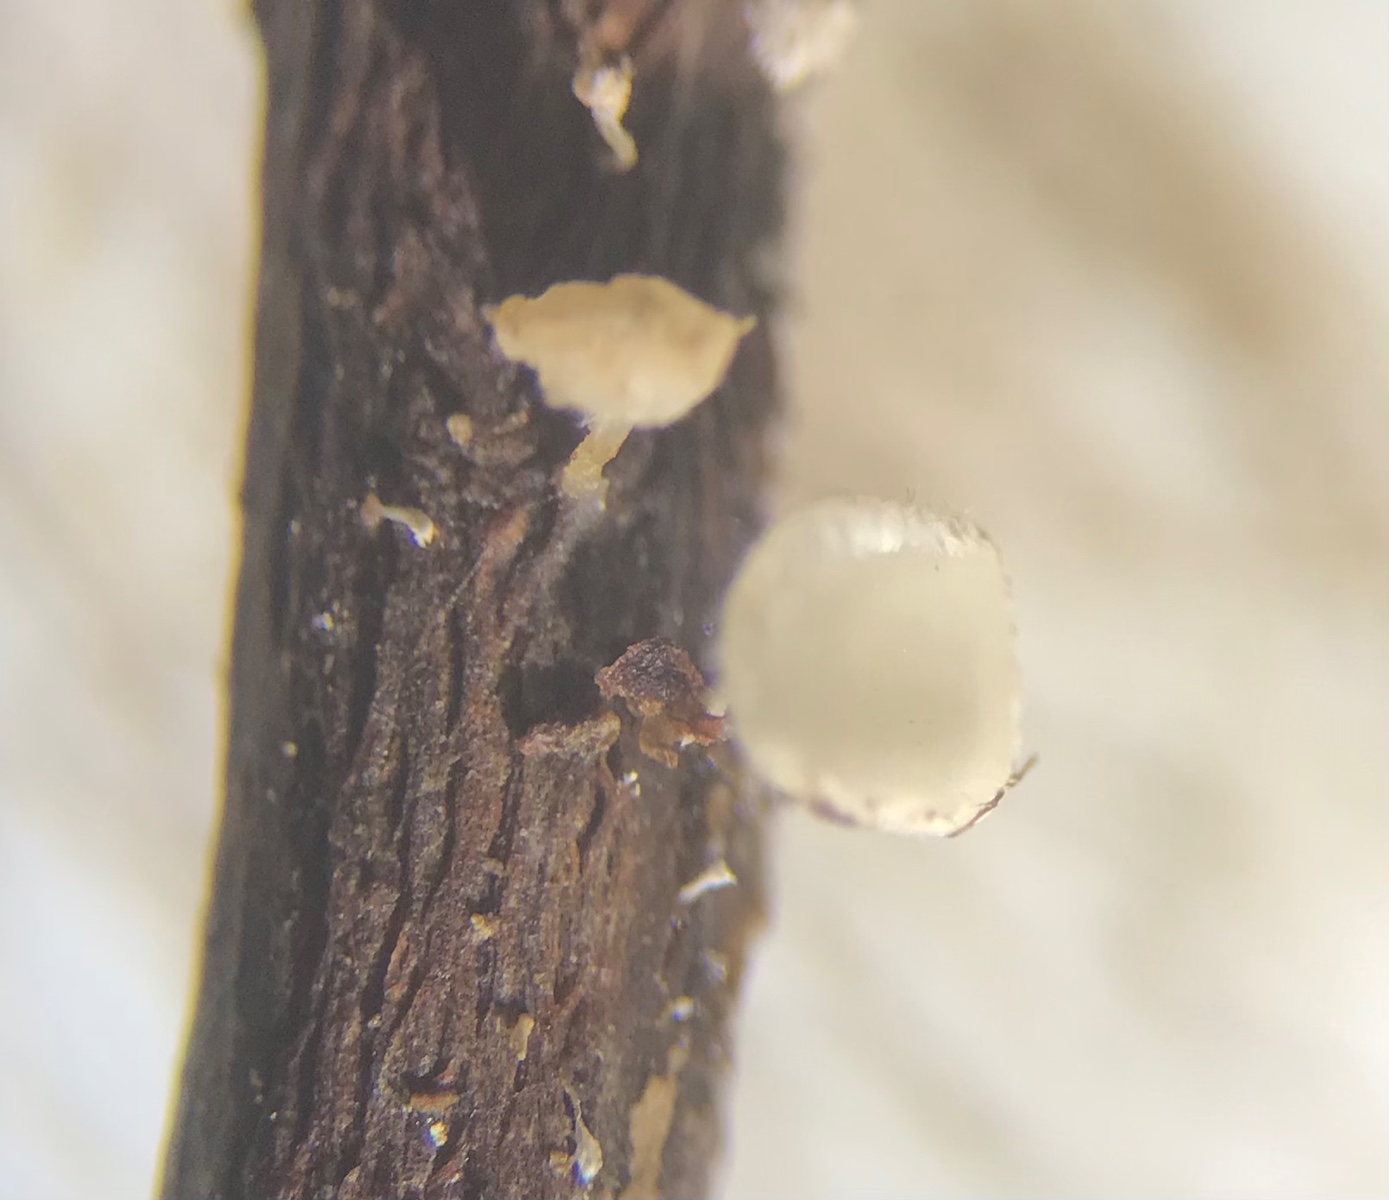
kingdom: Fungi
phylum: Ascomycota
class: Leotiomycetes
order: Helotiales
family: Lachnaceae
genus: Lachnum
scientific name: Lachnum
